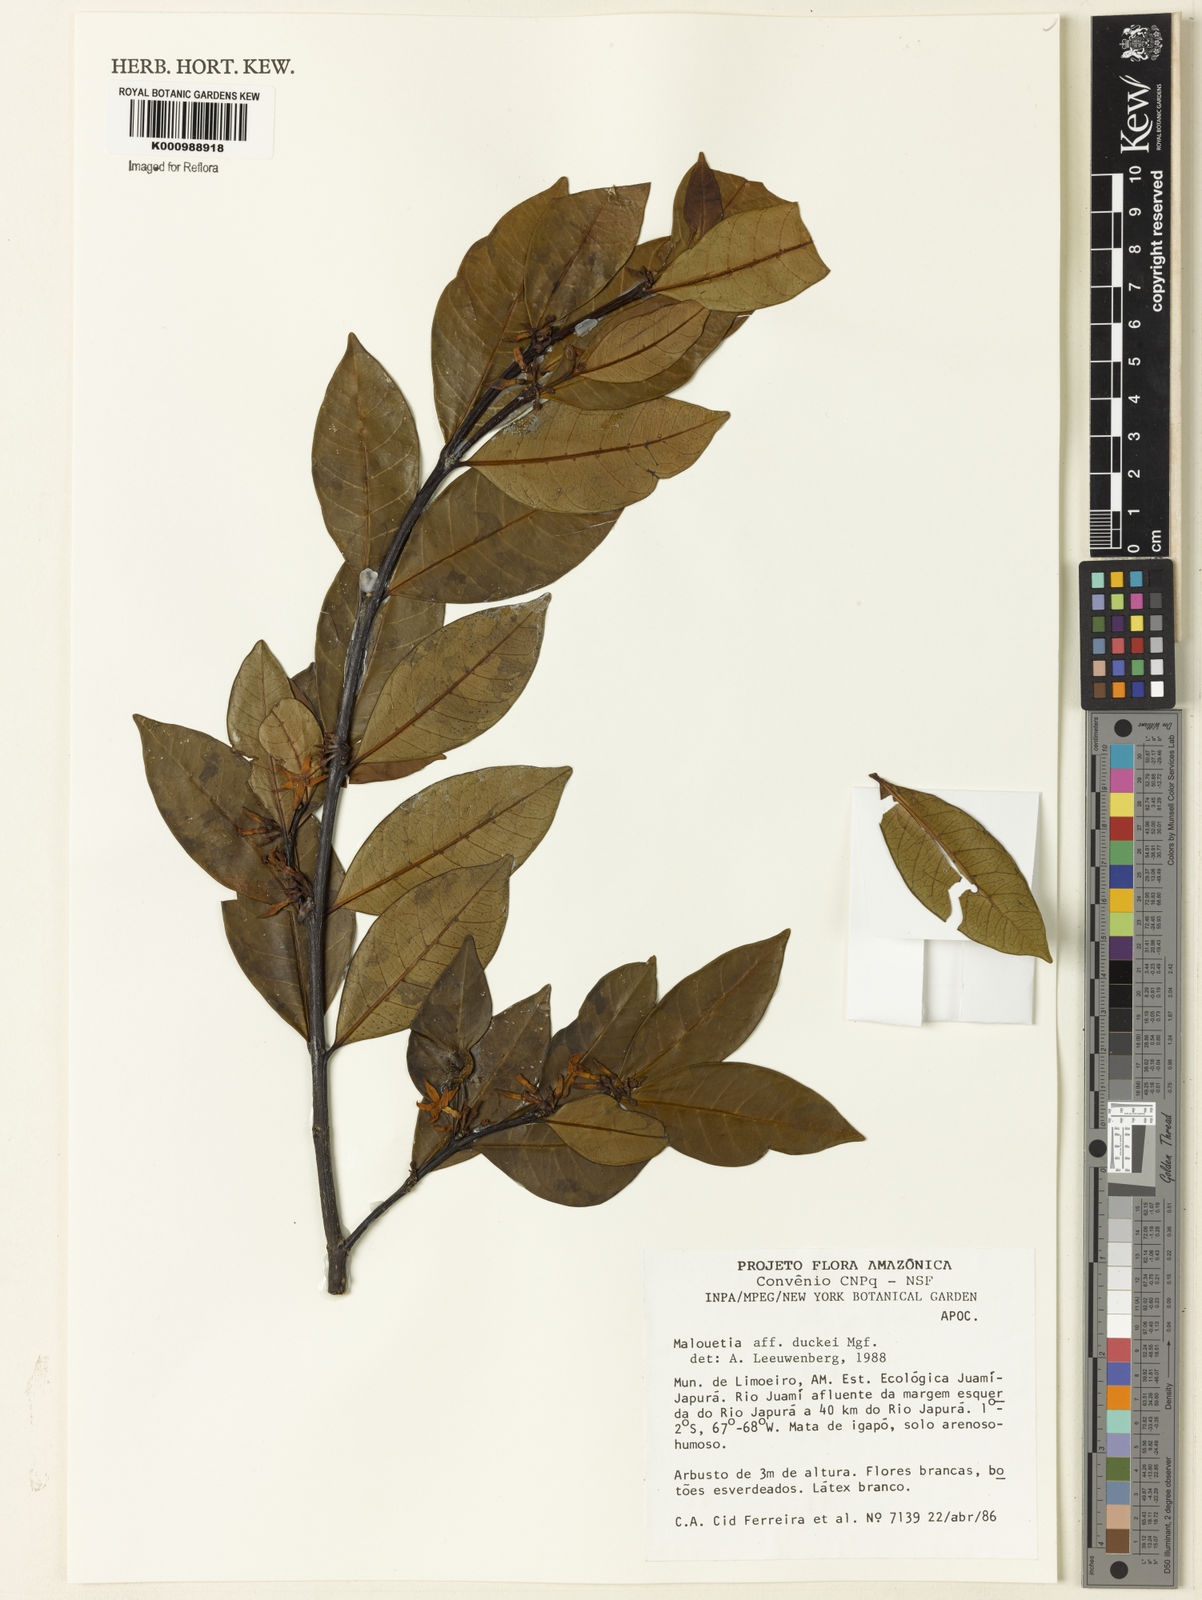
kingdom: Plantae
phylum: Tracheophyta
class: Magnoliopsida
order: Gentianales
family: Apocynaceae
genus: Malouetia
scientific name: Malouetia duckei
